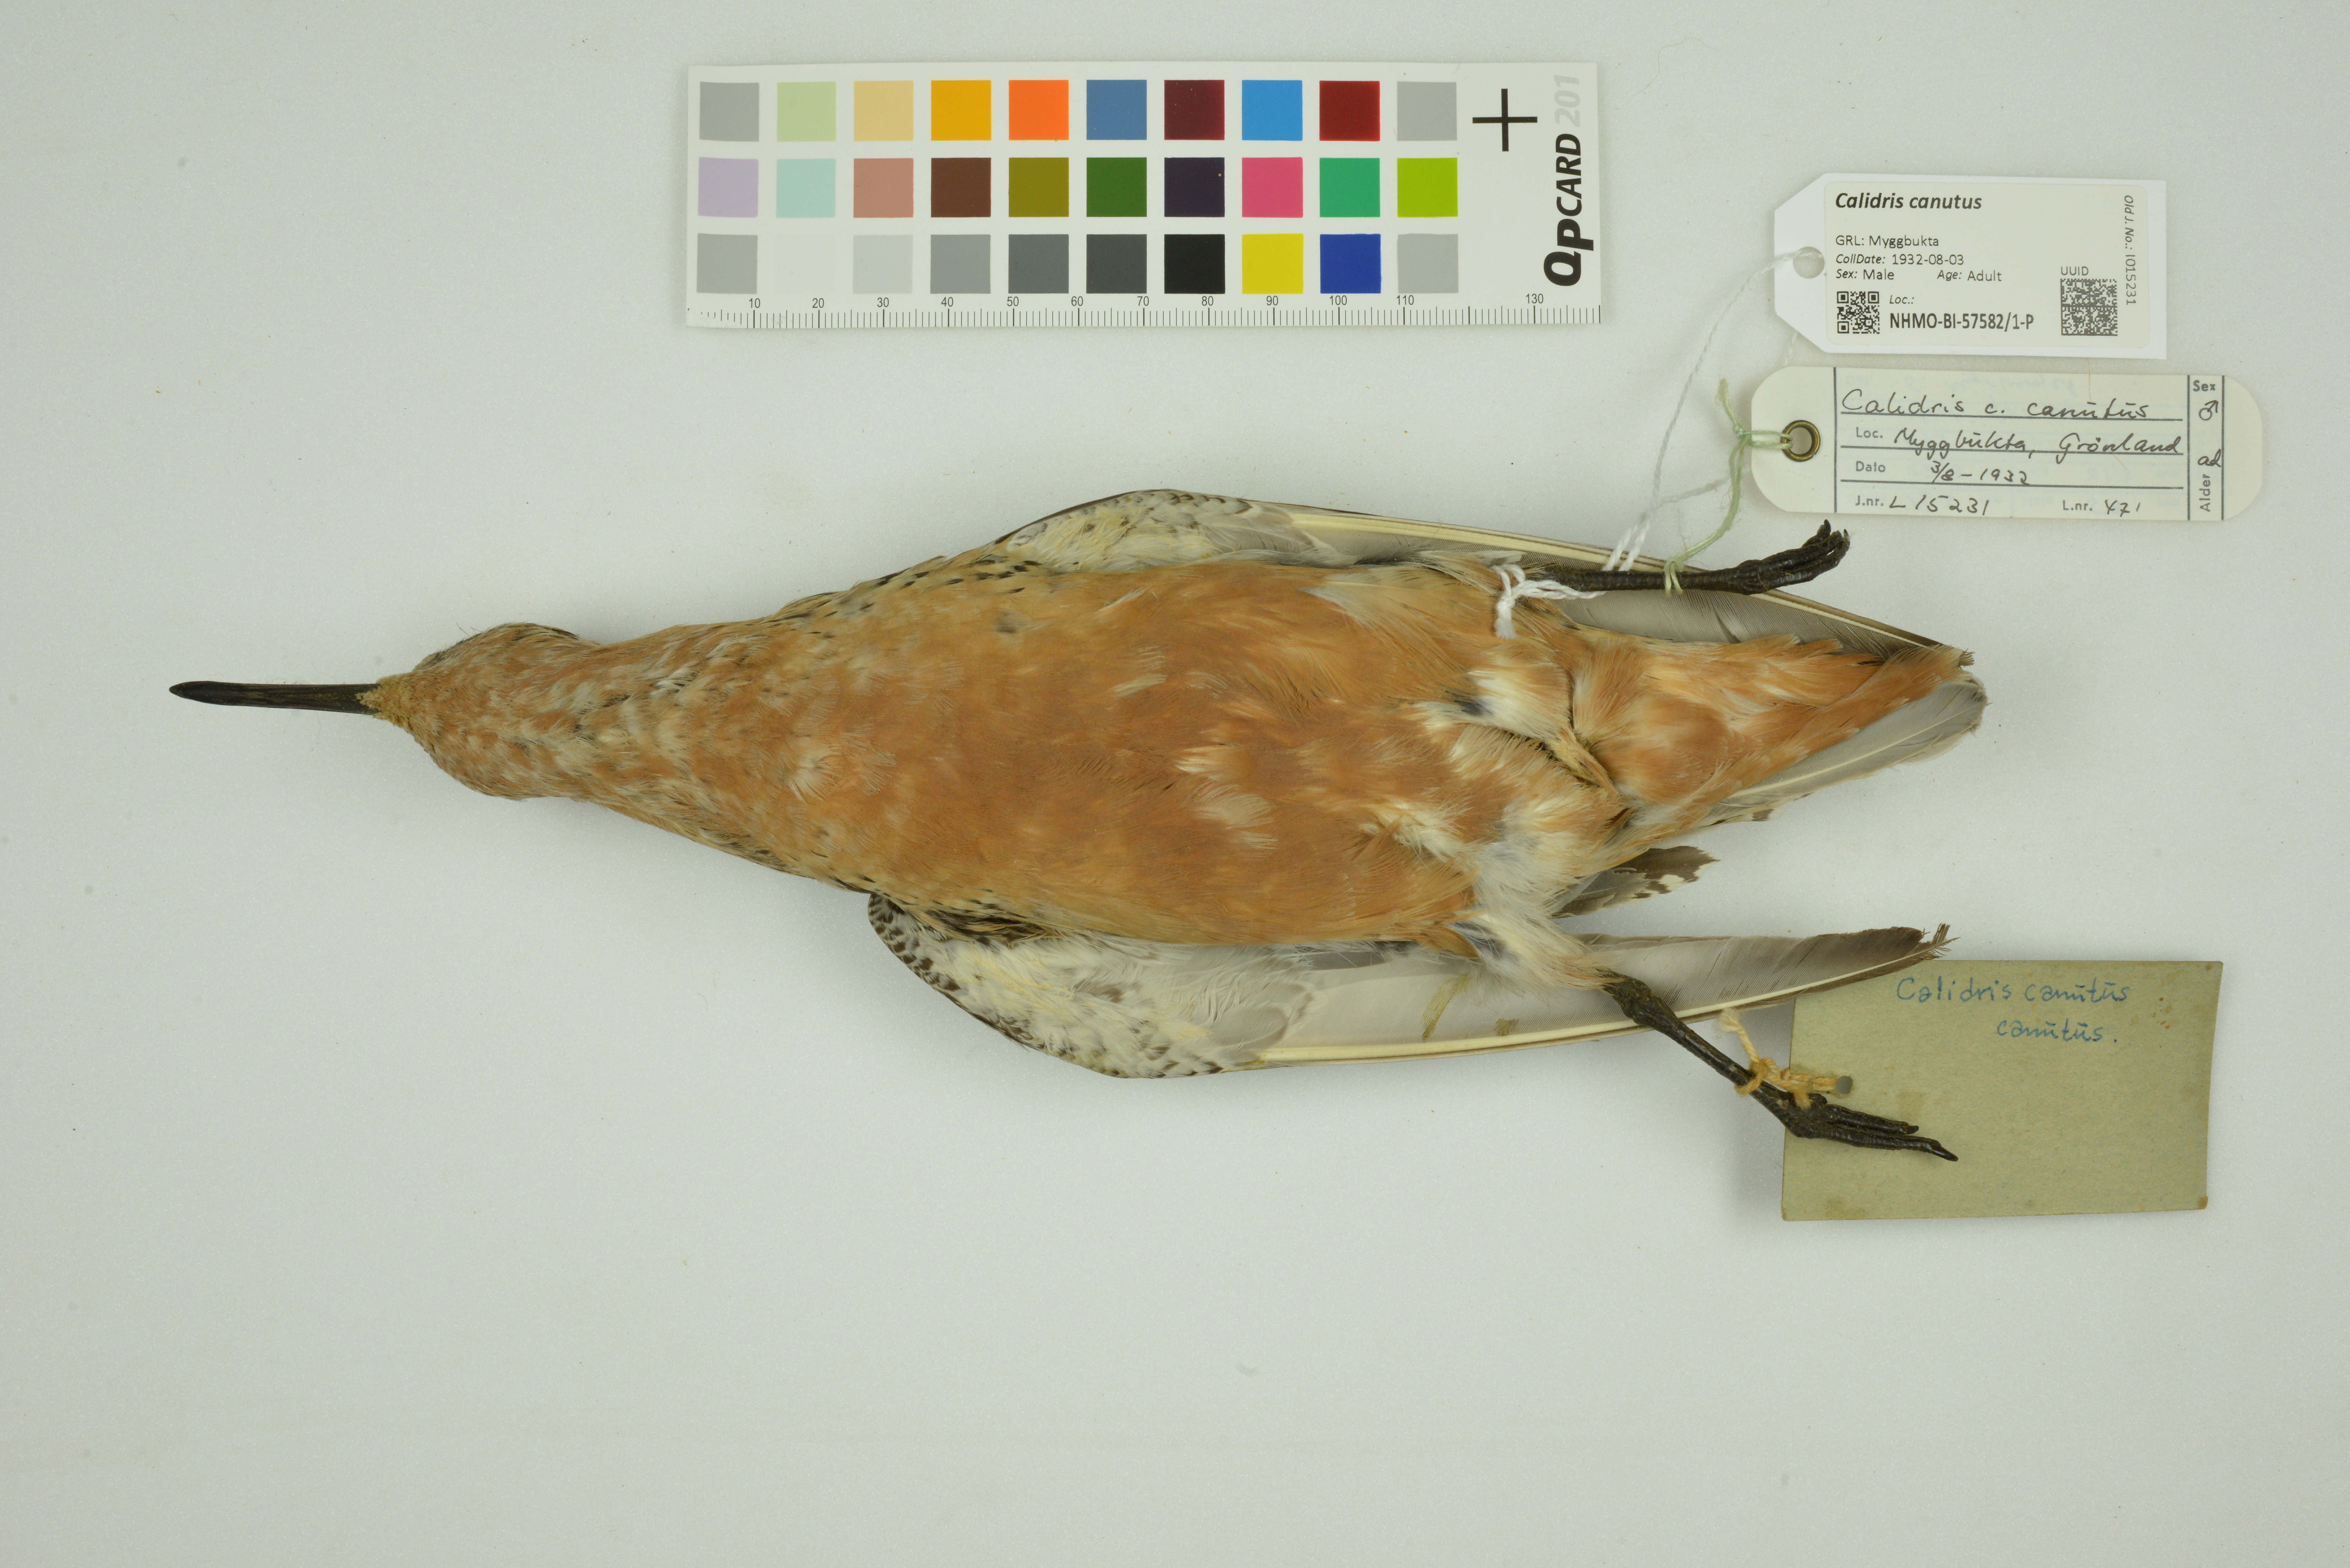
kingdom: Animalia
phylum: Chordata
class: Aves
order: Charadriiformes
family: Scolopacidae
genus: Calidris
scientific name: Calidris canutus
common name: Red knot
